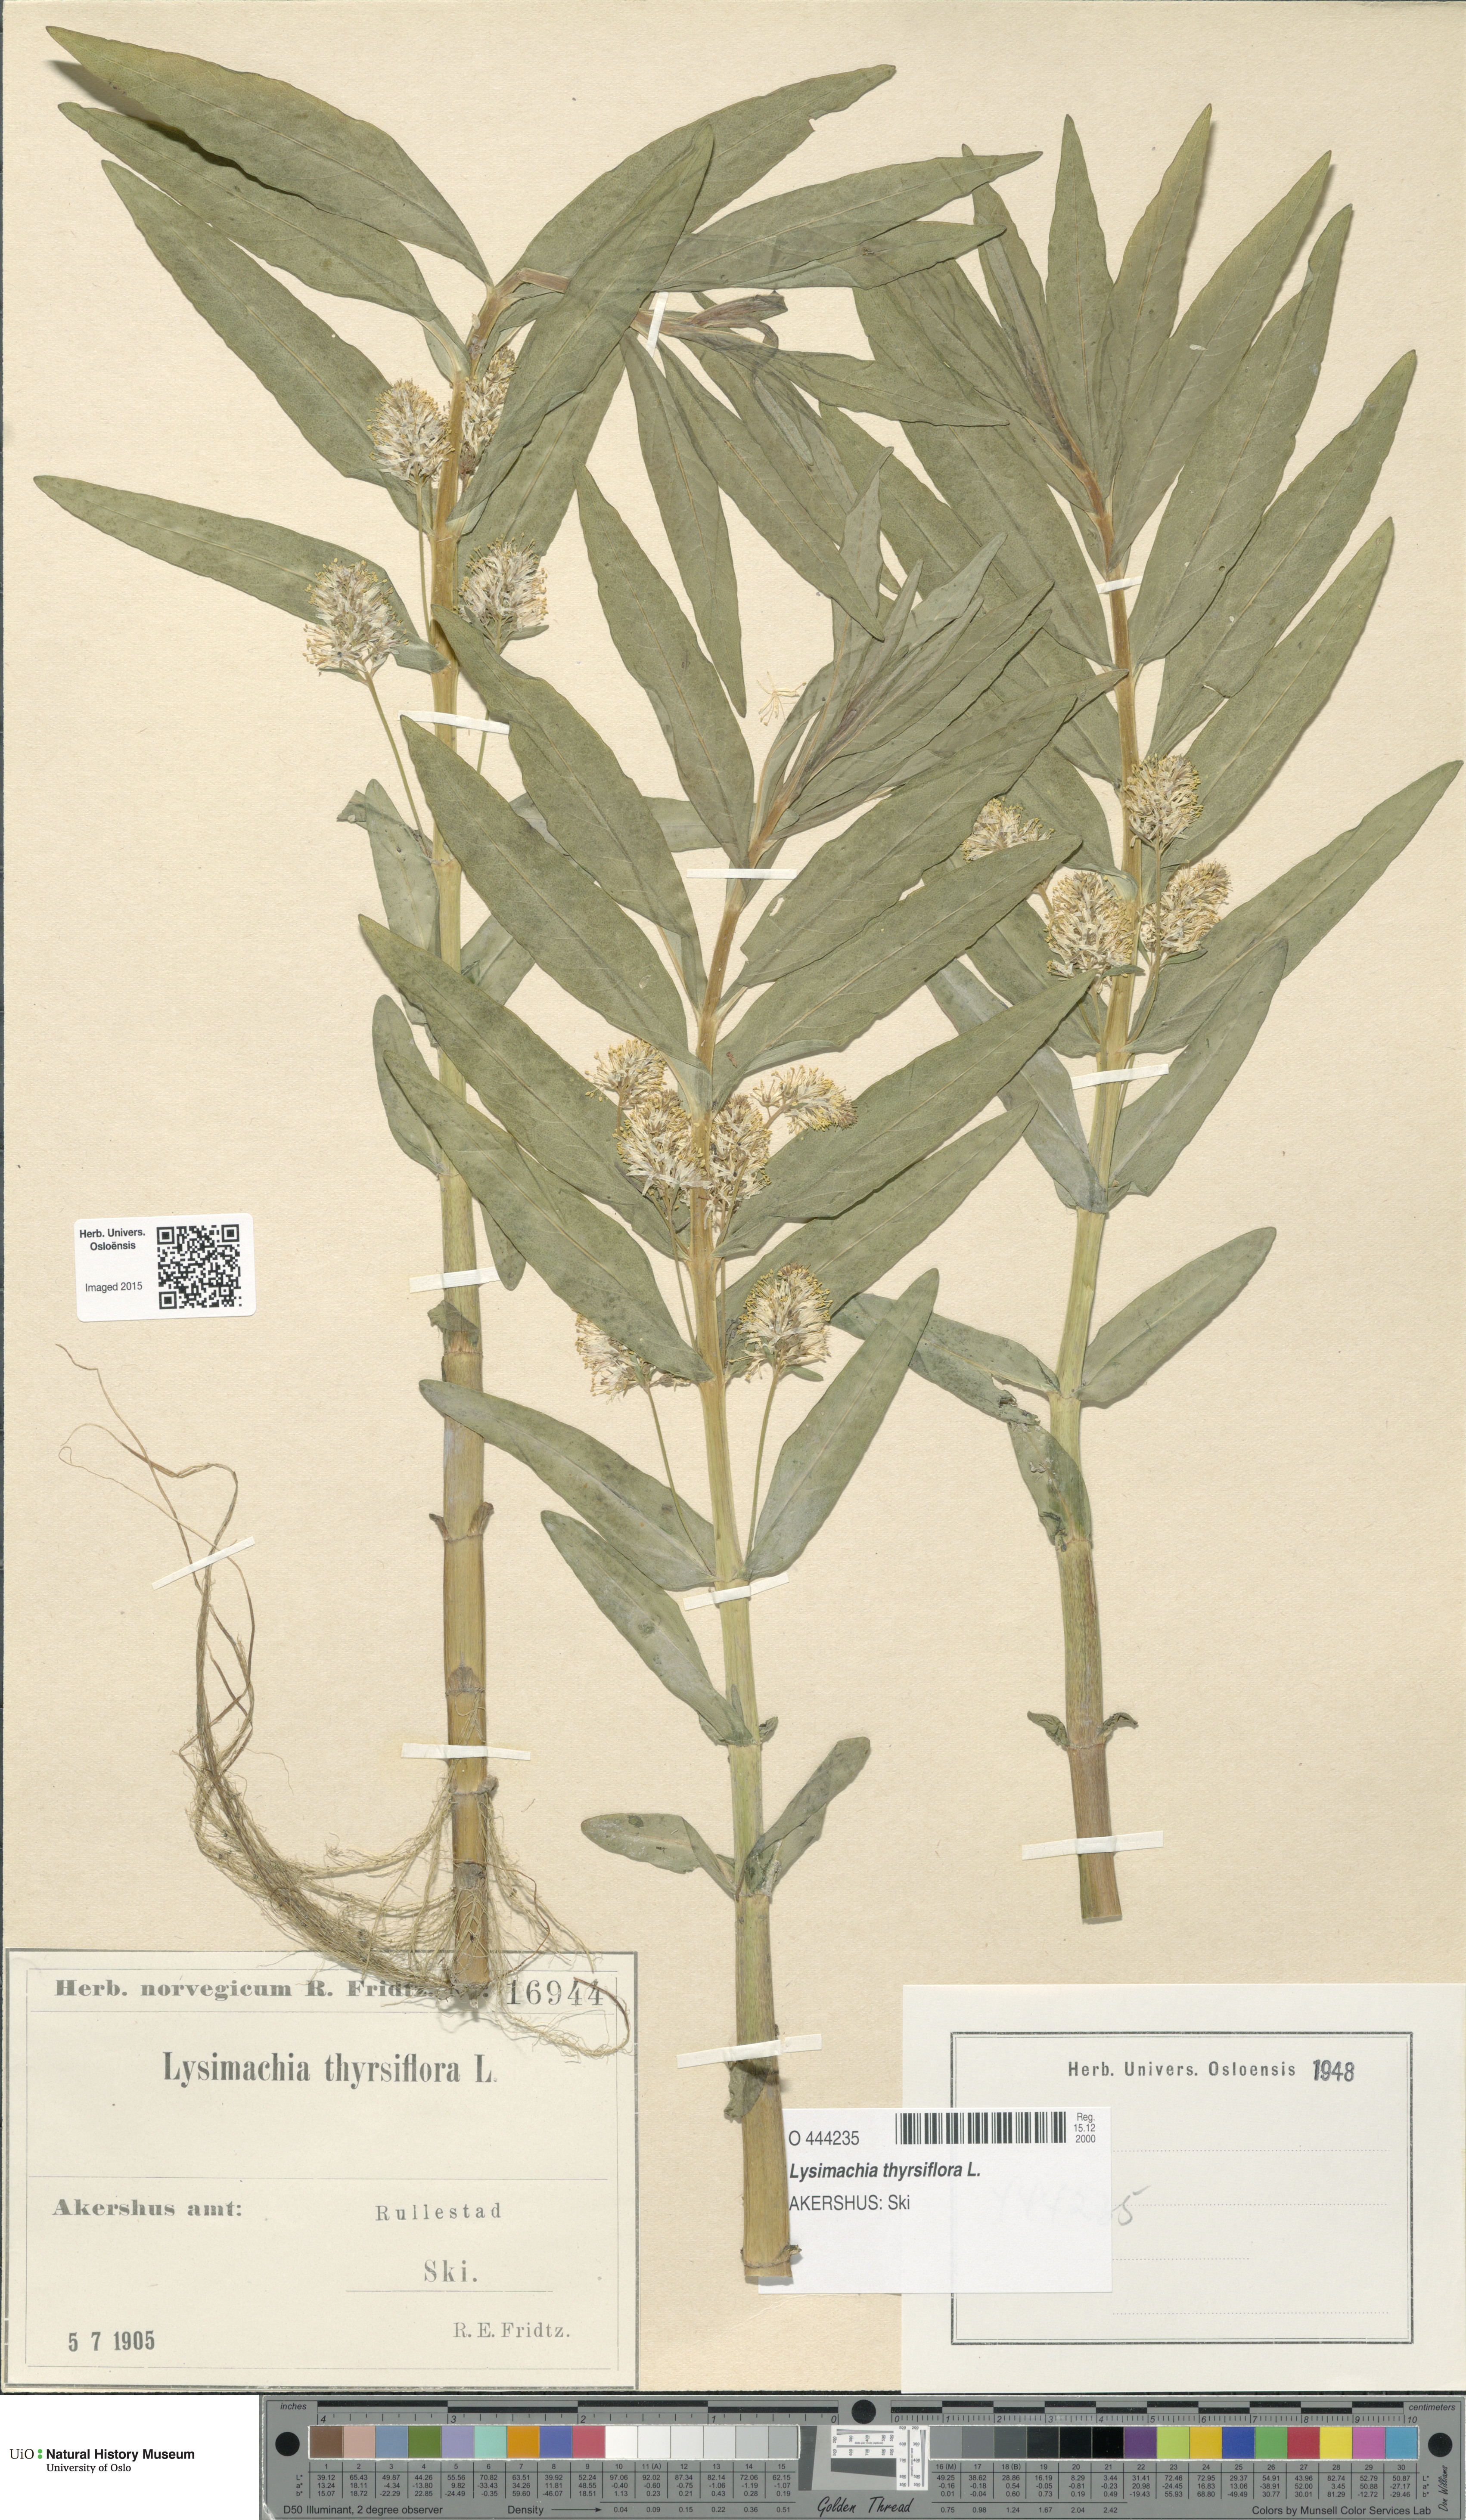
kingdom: Plantae
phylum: Tracheophyta
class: Magnoliopsida
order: Ericales
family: Primulaceae
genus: Lysimachia
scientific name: Lysimachia thyrsiflora
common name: Tufted loosestrife
